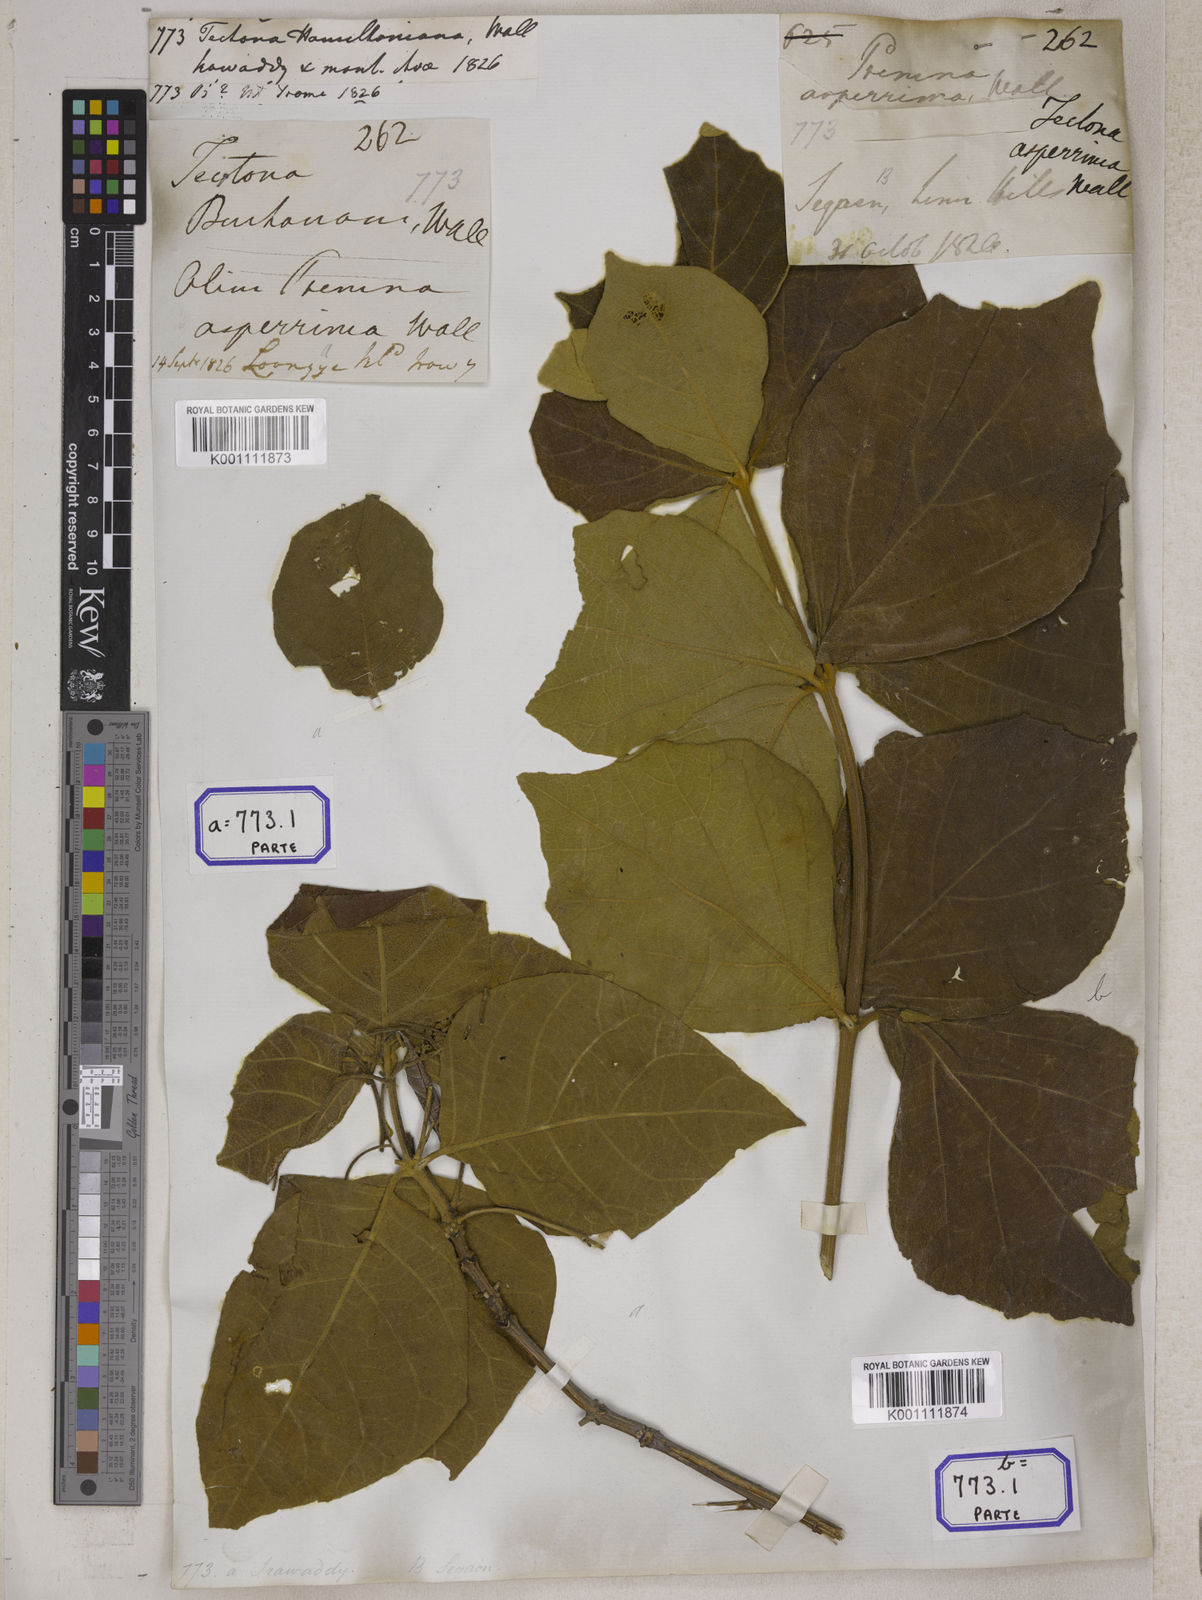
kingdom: Plantae
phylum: Tracheophyta
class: Magnoliopsida
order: Lamiales
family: Lamiaceae
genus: Tectona
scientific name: Tectona hamiltoniana
